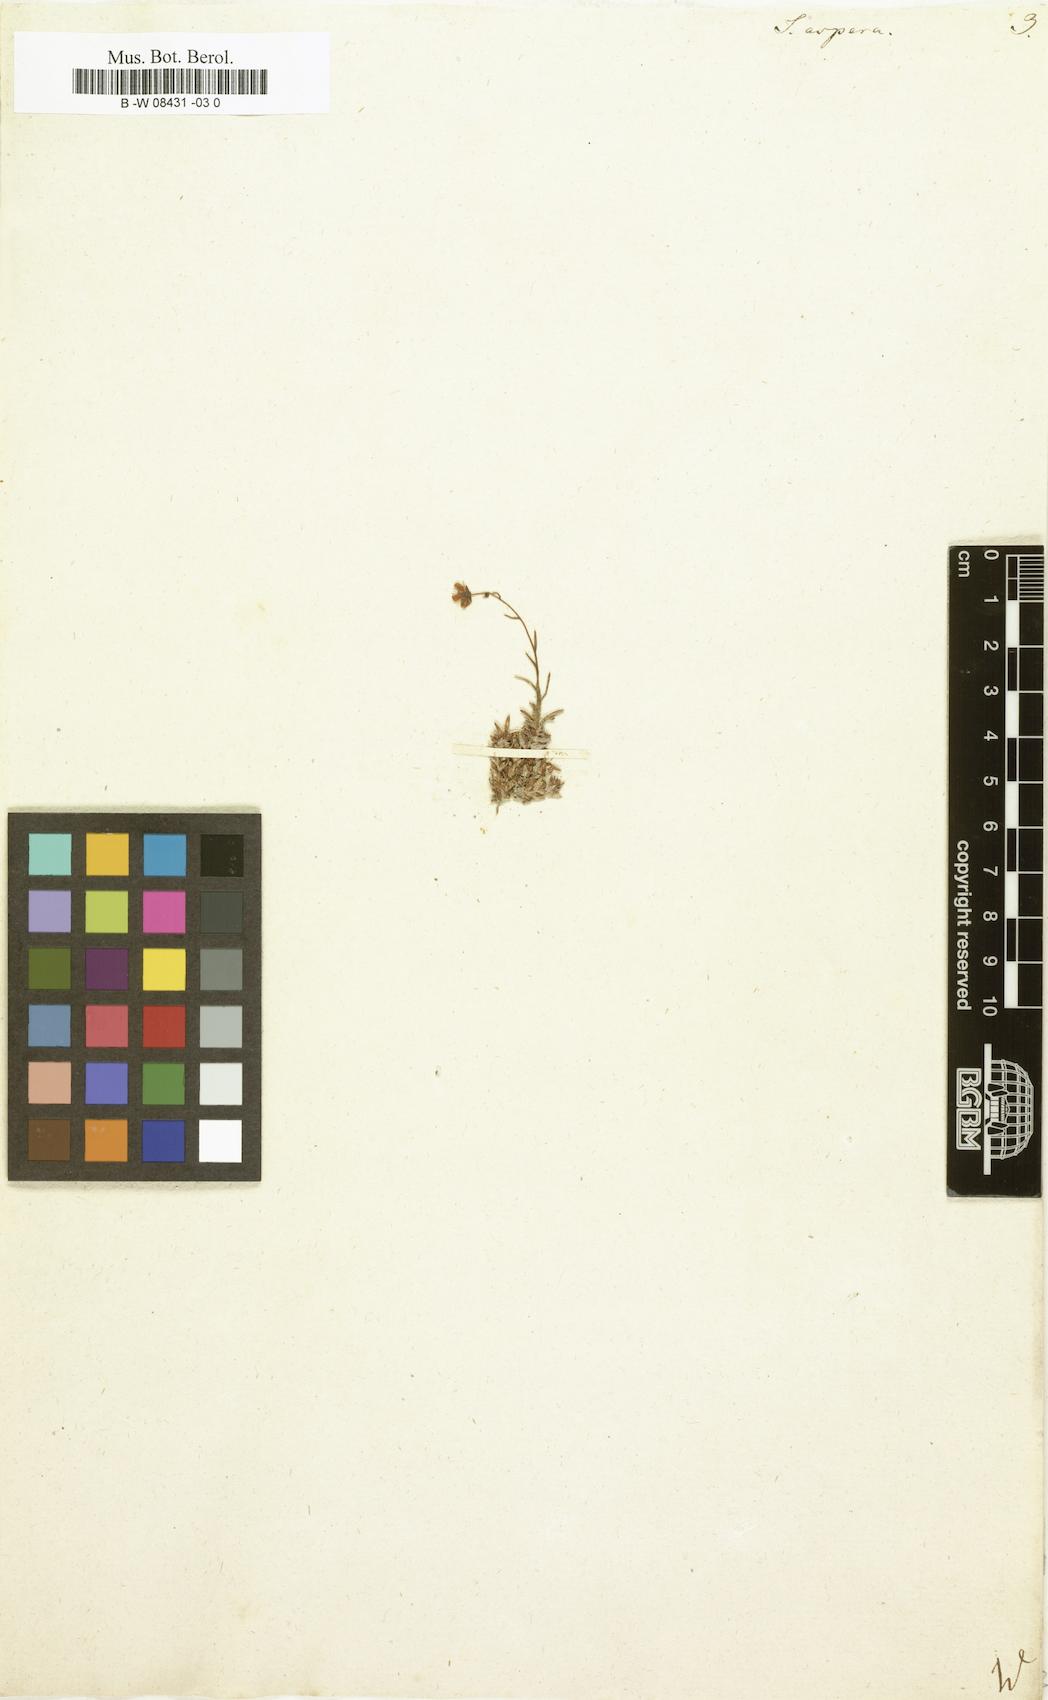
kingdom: Plantae
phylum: Tracheophyta
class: Magnoliopsida
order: Saxifragales
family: Saxifragaceae
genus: Saxifraga
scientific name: Saxifraga aspera
